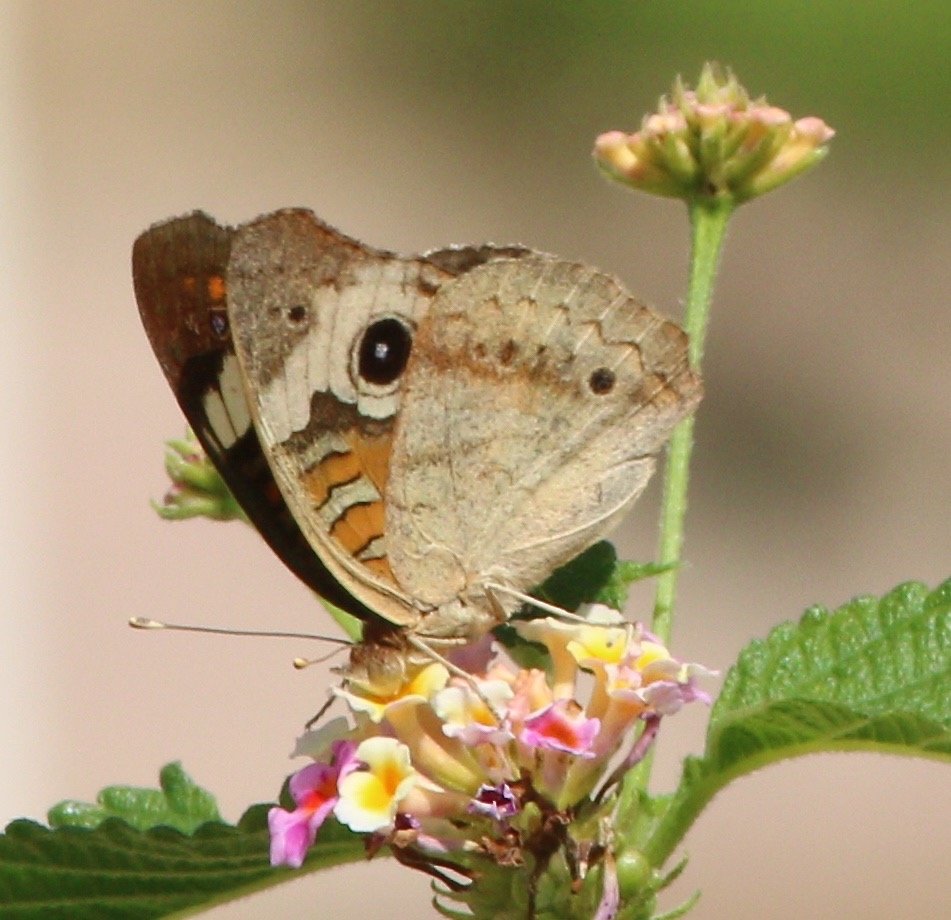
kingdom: Animalia
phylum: Arthropoda
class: Insecta
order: Lepidoptera
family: Nymphalidae
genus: Junonia
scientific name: Junonia coenia
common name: Common Buckeye
